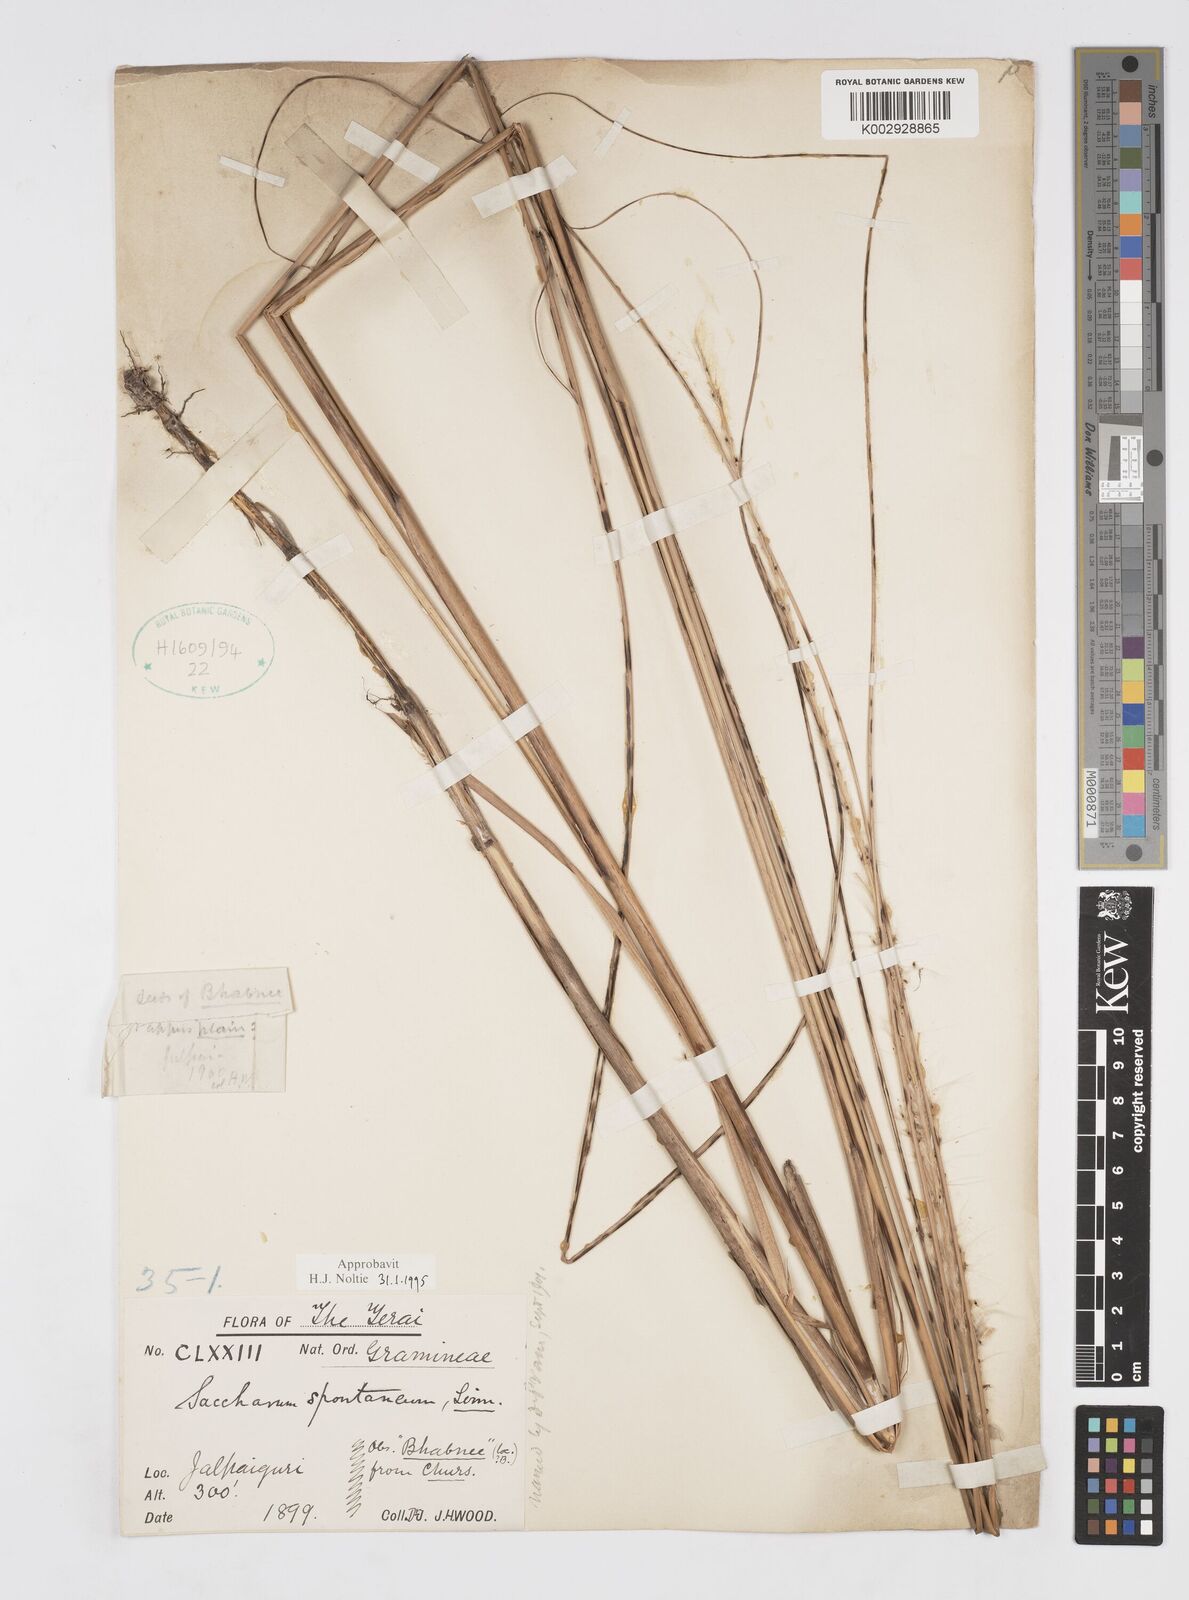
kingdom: Plantae
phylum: Tracheophyta
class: Liliopsida
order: Poales
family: Poaceae
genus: Saccharum
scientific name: Saccharum spontaneum
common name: Wild sugarcane
